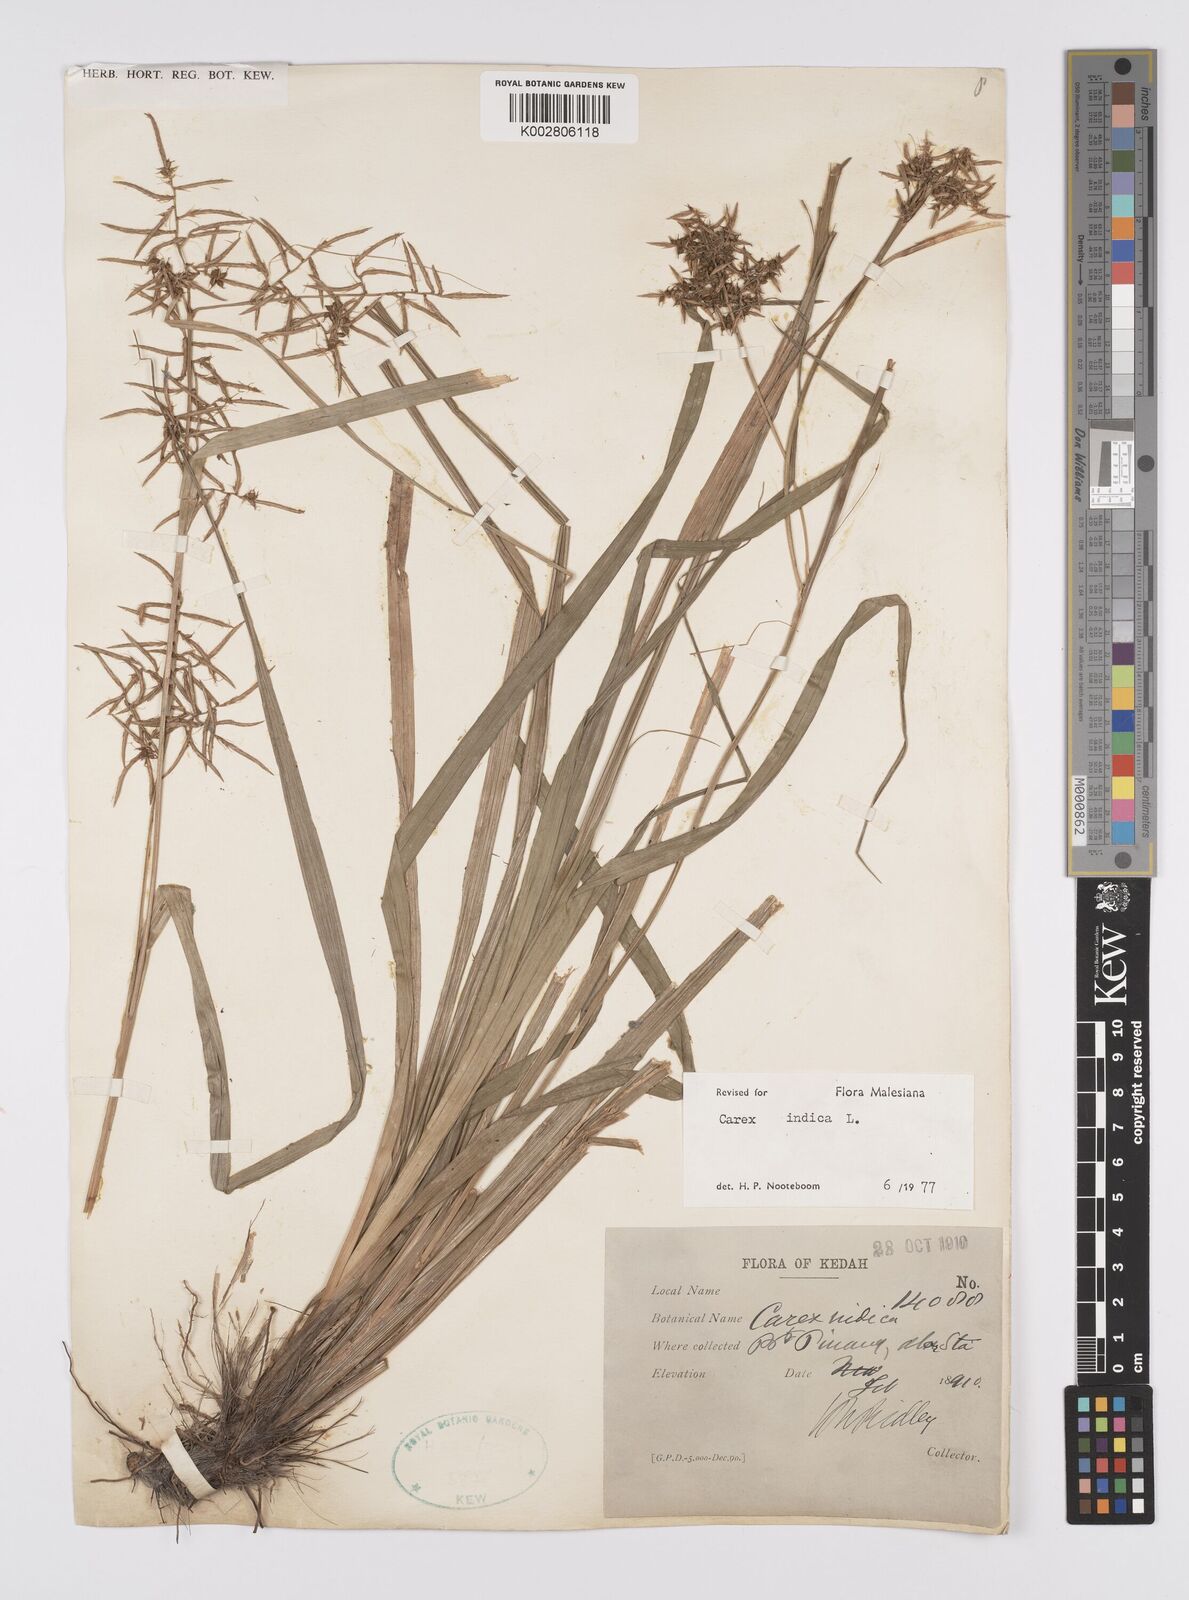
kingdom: Plantae
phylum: Tracheophyta
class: Liliopsida
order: Poales
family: Cyperaceae
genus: Carex
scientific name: Carex indica
